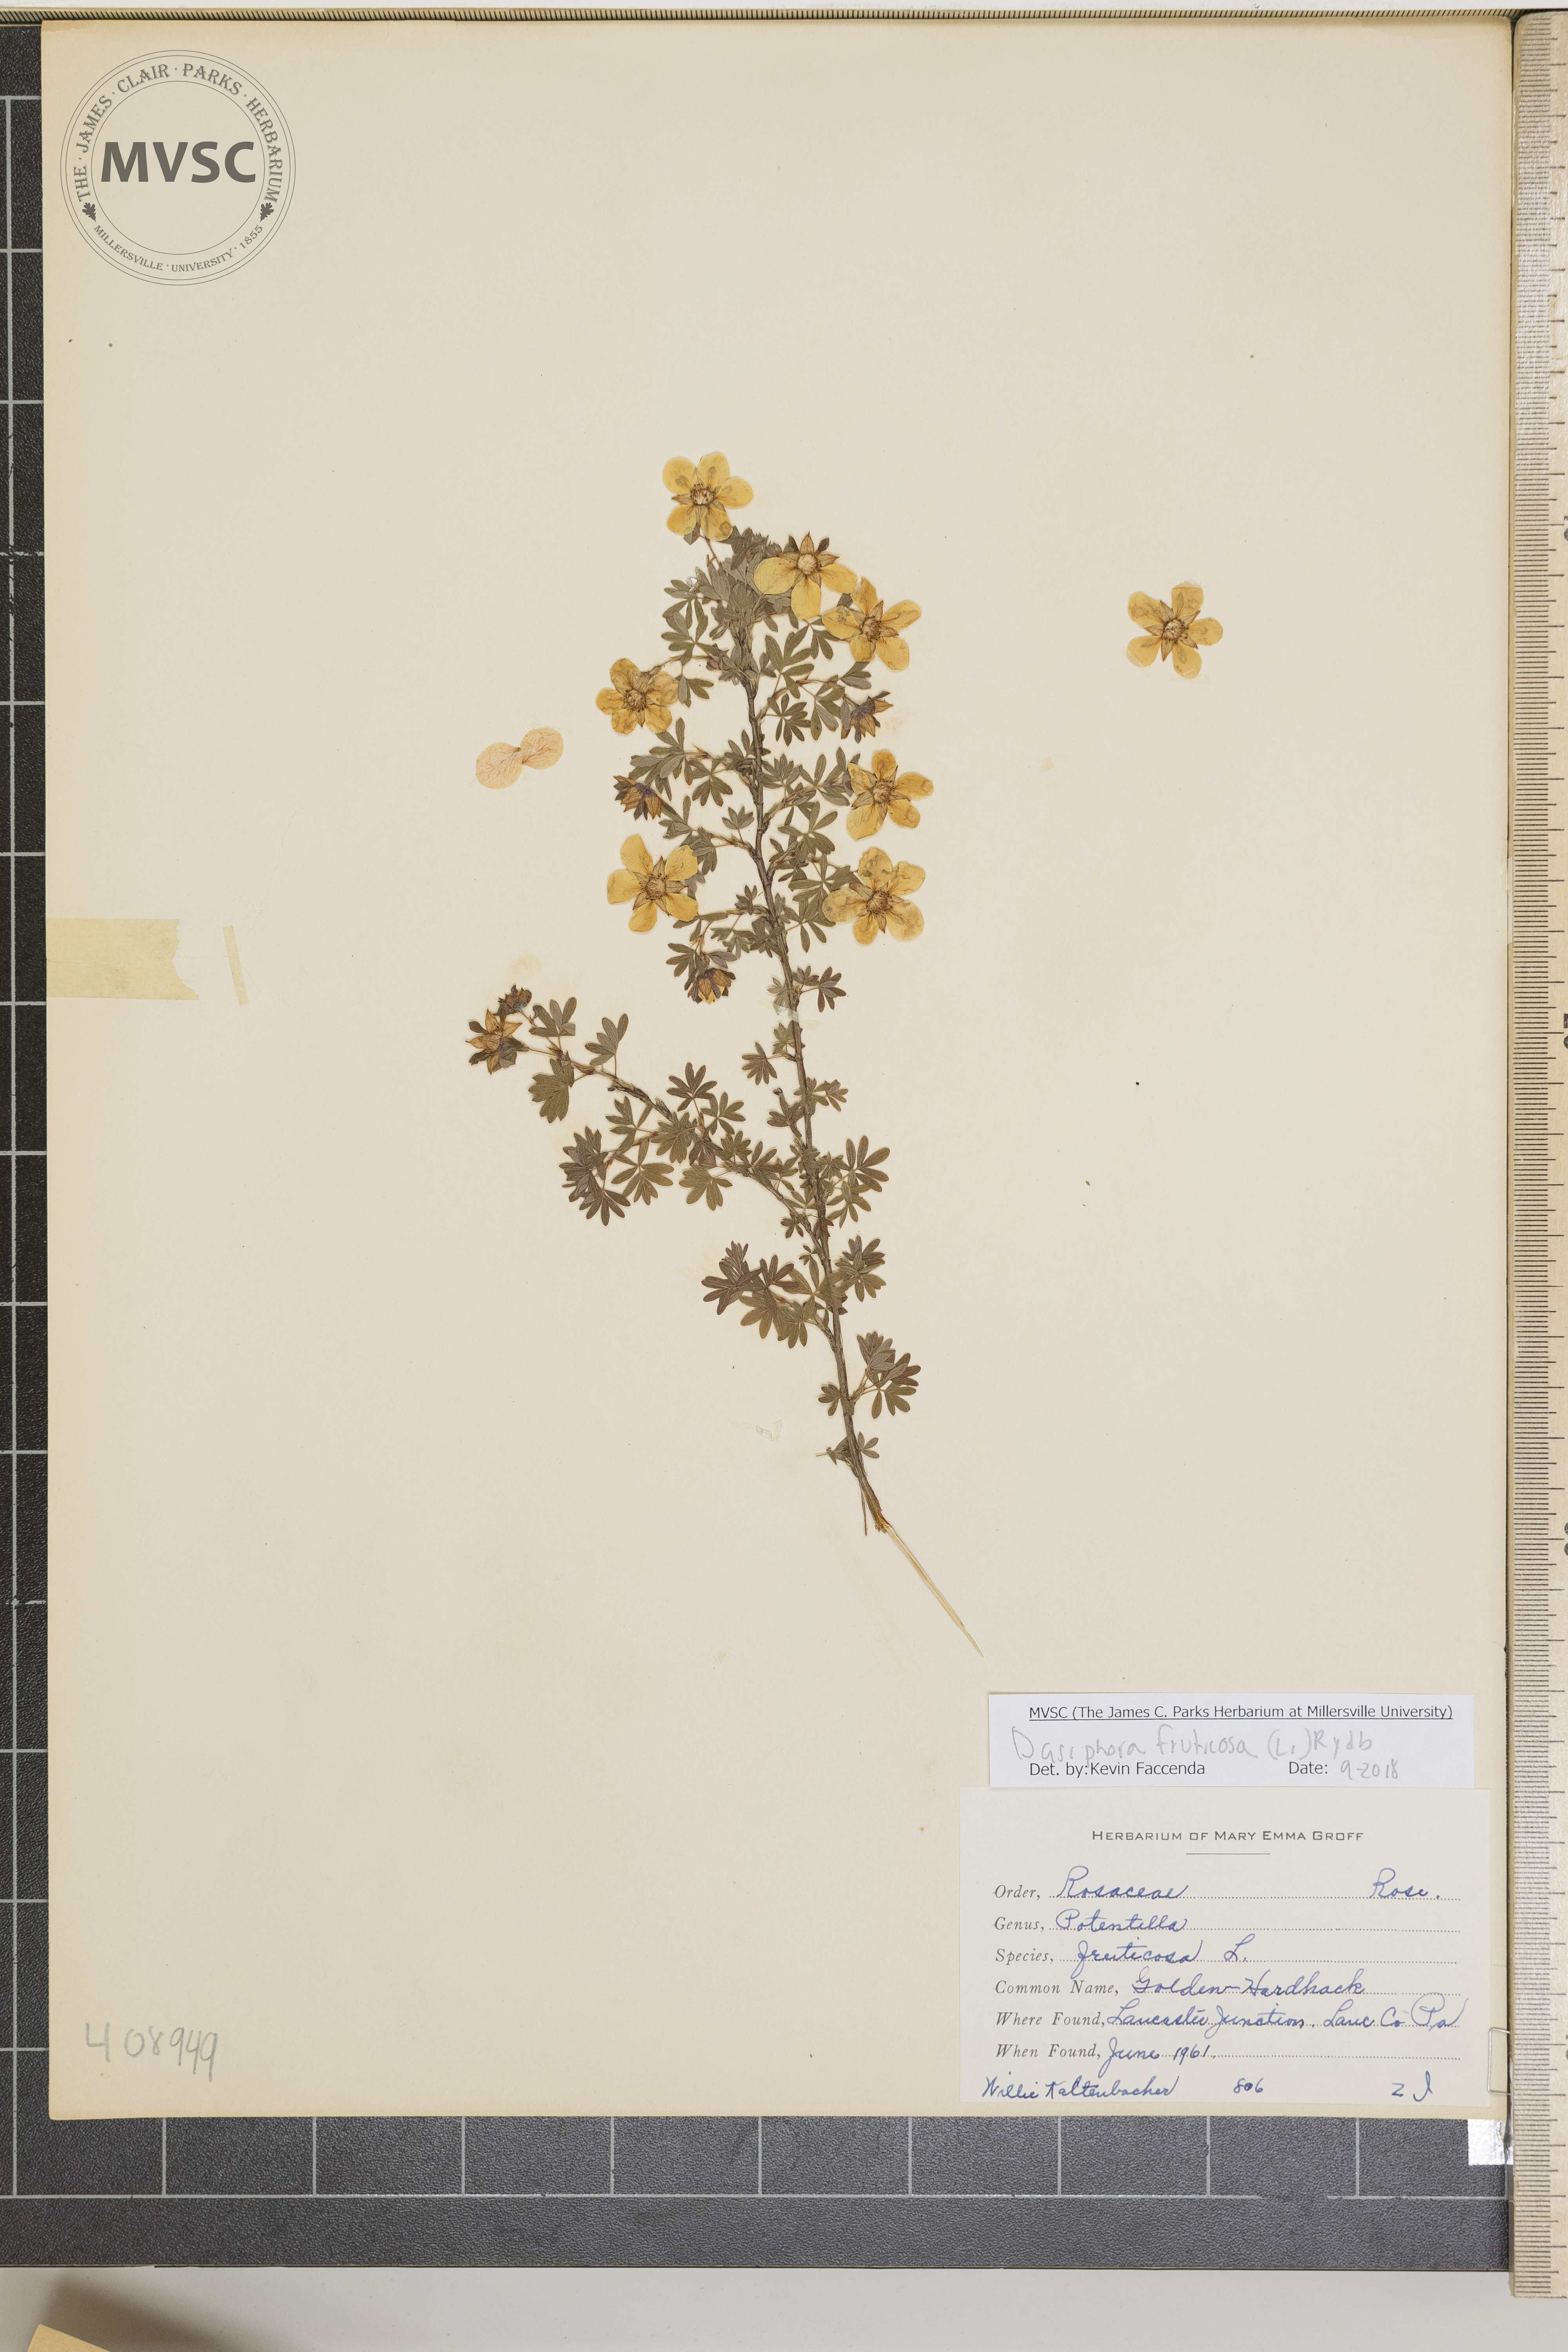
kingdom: Plantae
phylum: Tracheophyta
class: Magnoliopsida
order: Rosales
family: Rosaceae
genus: Dasiphora
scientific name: Dasiphora fruticosa
